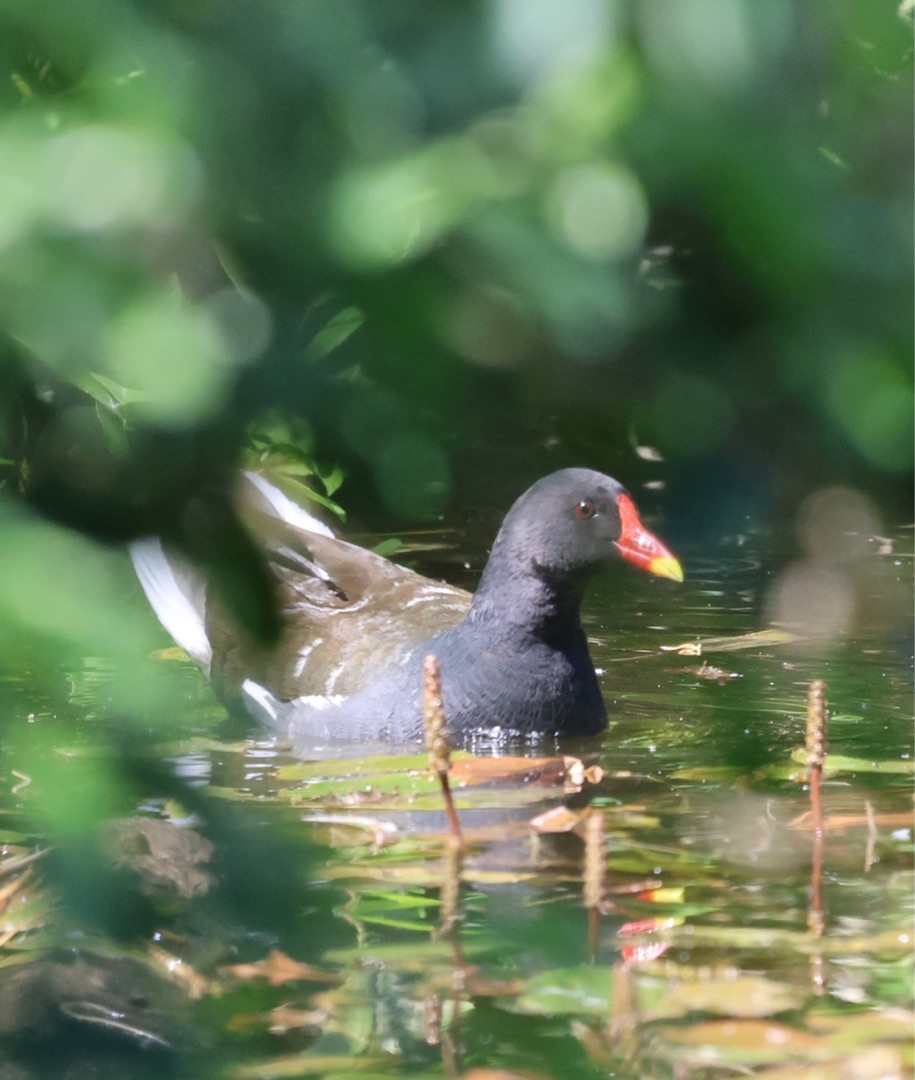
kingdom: Animalia
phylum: Chordata
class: Aves
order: Gruiformes
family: Rallidae
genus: Gallinula
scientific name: Gallinula chloropus
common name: Grønbenet rørhøne
